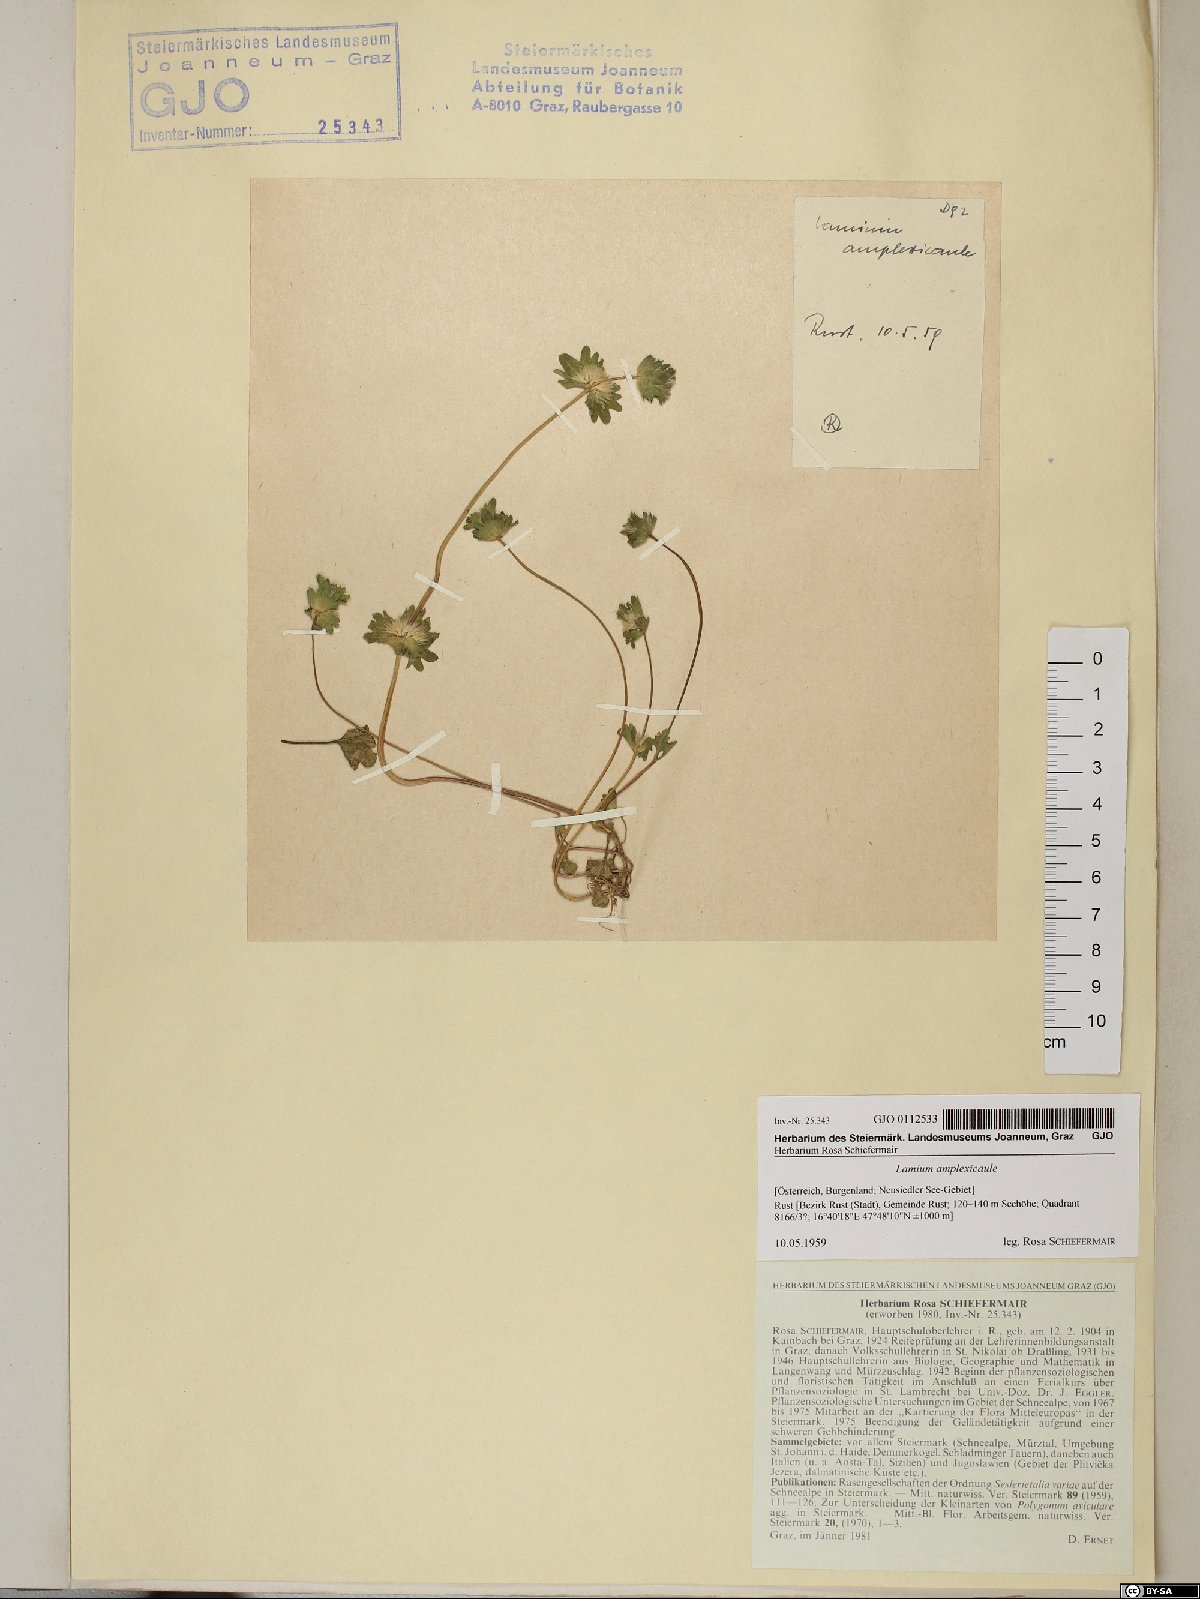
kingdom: Plantae
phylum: Tracheophyta
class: Magnoliopsida
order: Lamiales
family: Lamiaceae
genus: Lamium
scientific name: Lamium amplexicaule
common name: Henbit dead-nettle
